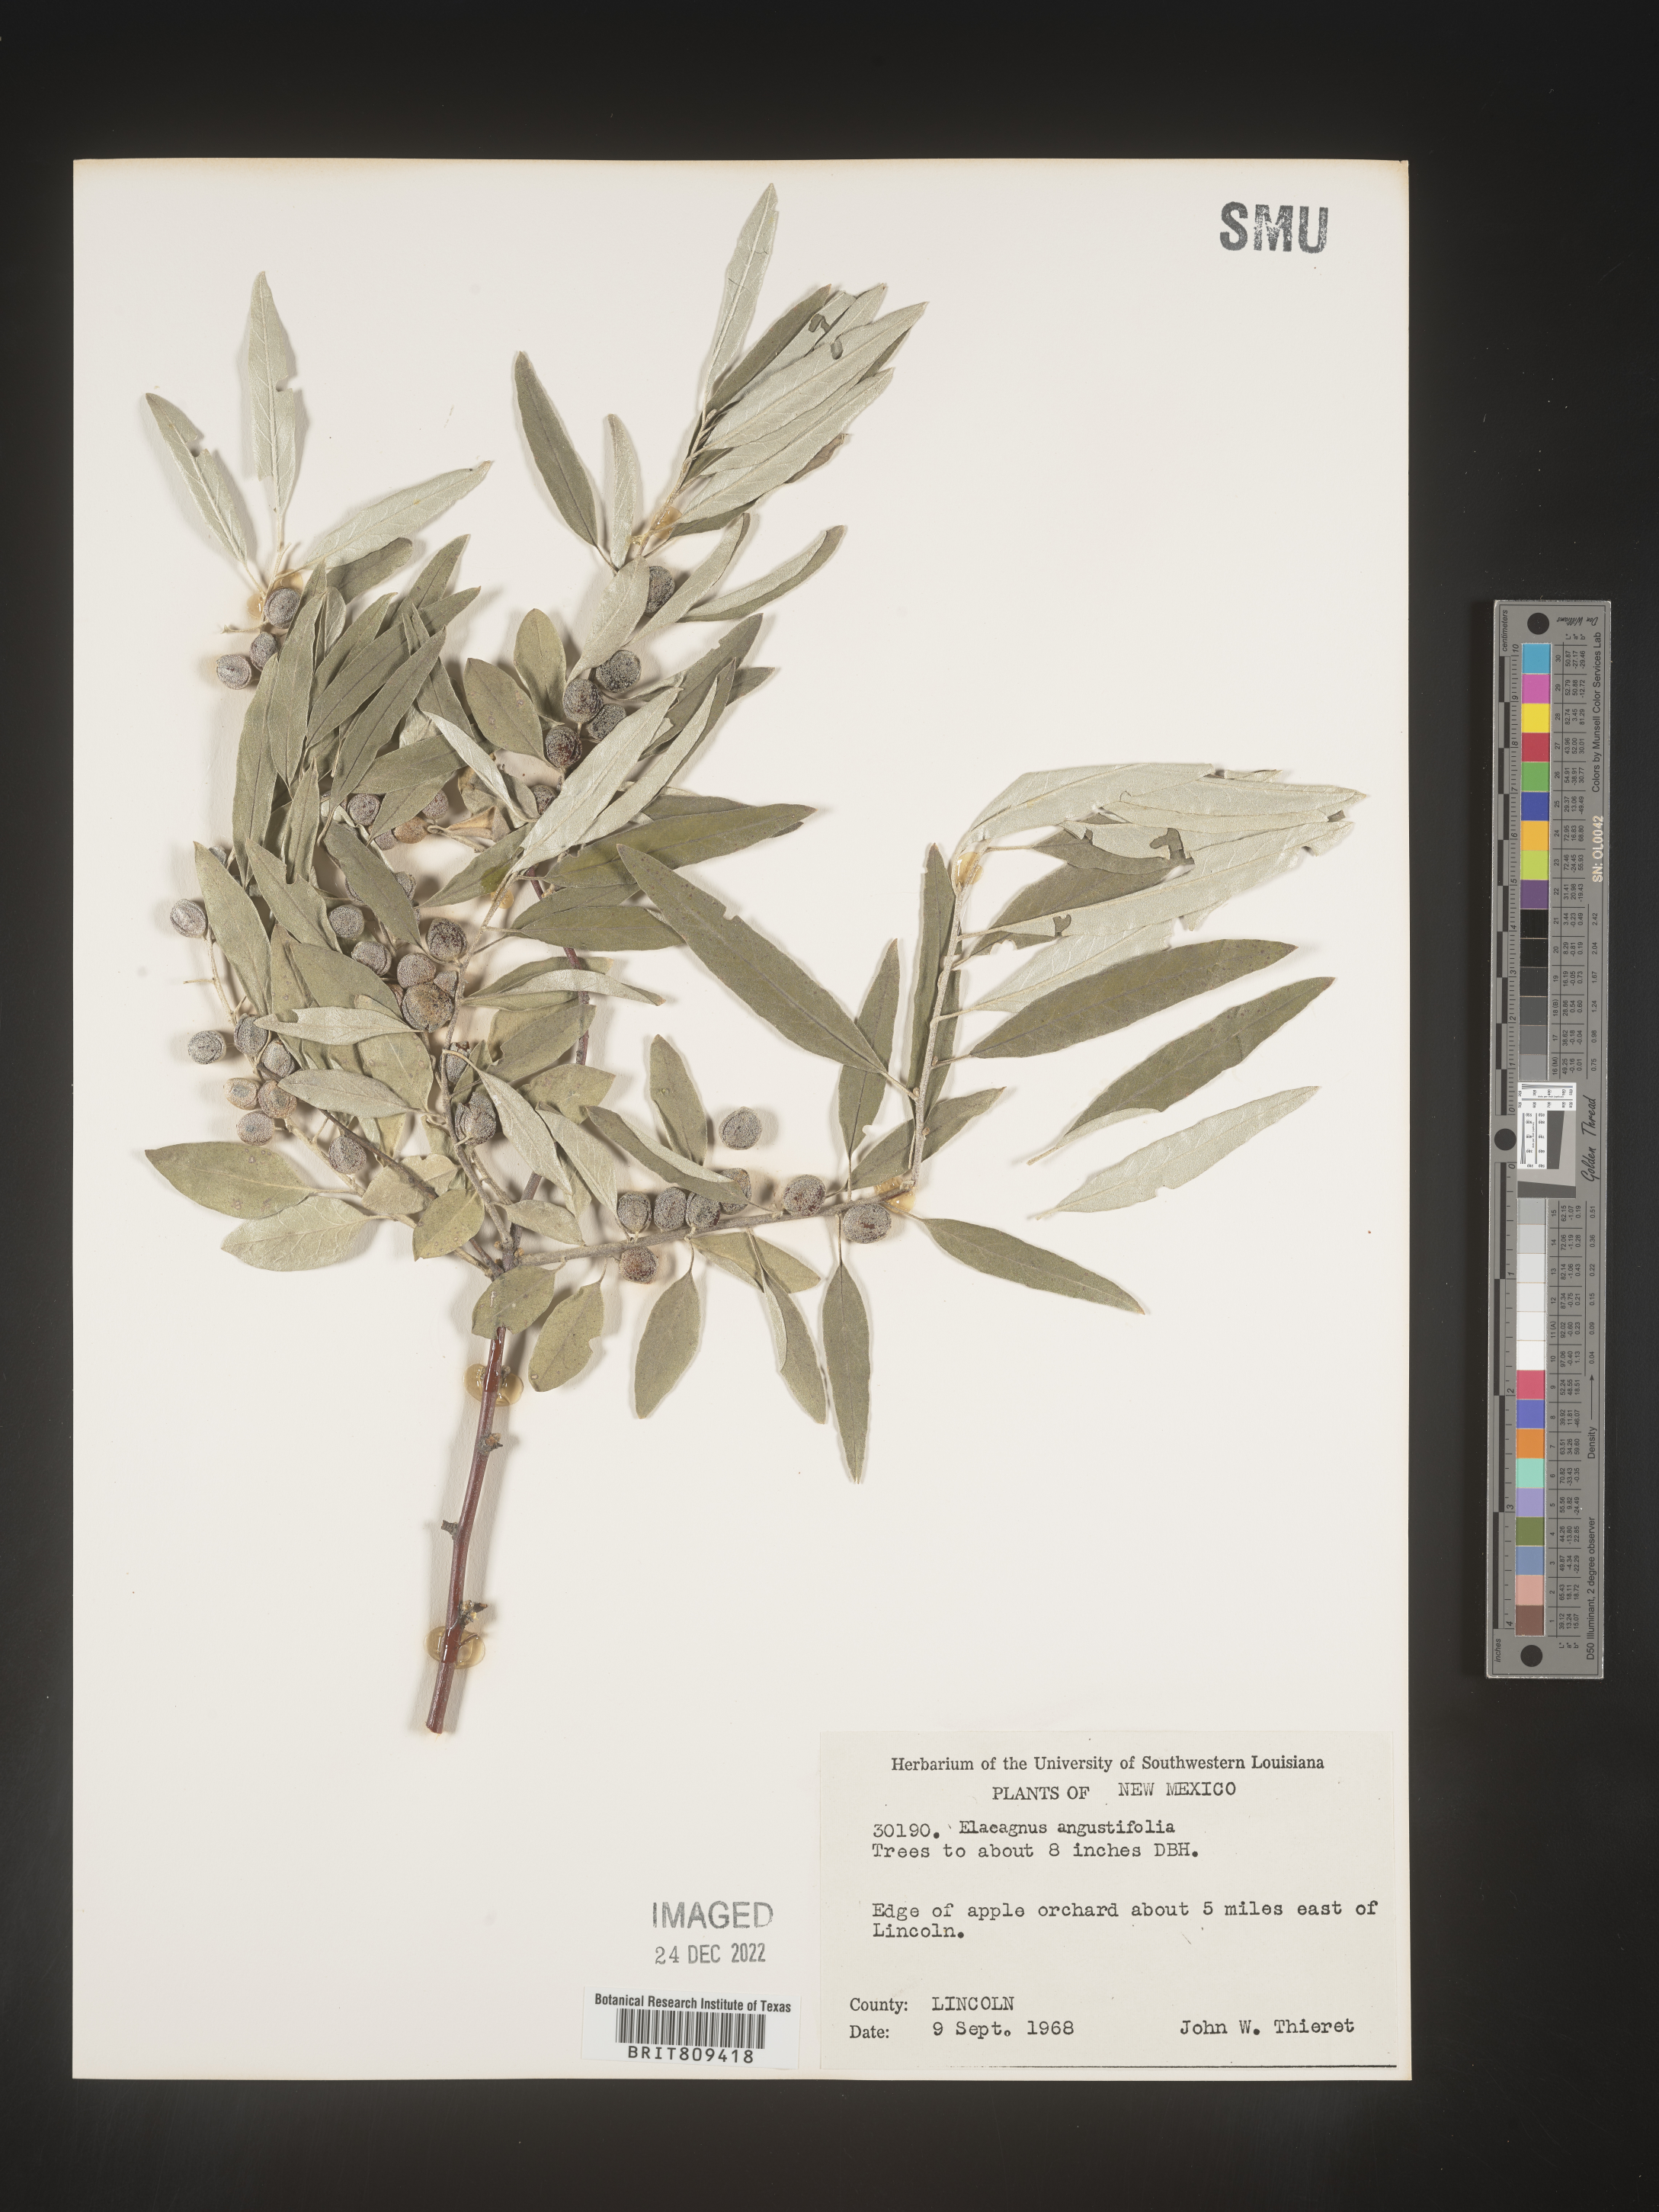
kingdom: Plantae
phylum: Tracheophyta
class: Magnoliopsida
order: Rosales
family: Elaeagnaceae
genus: Elaeagnus
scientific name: Elaeagnus
